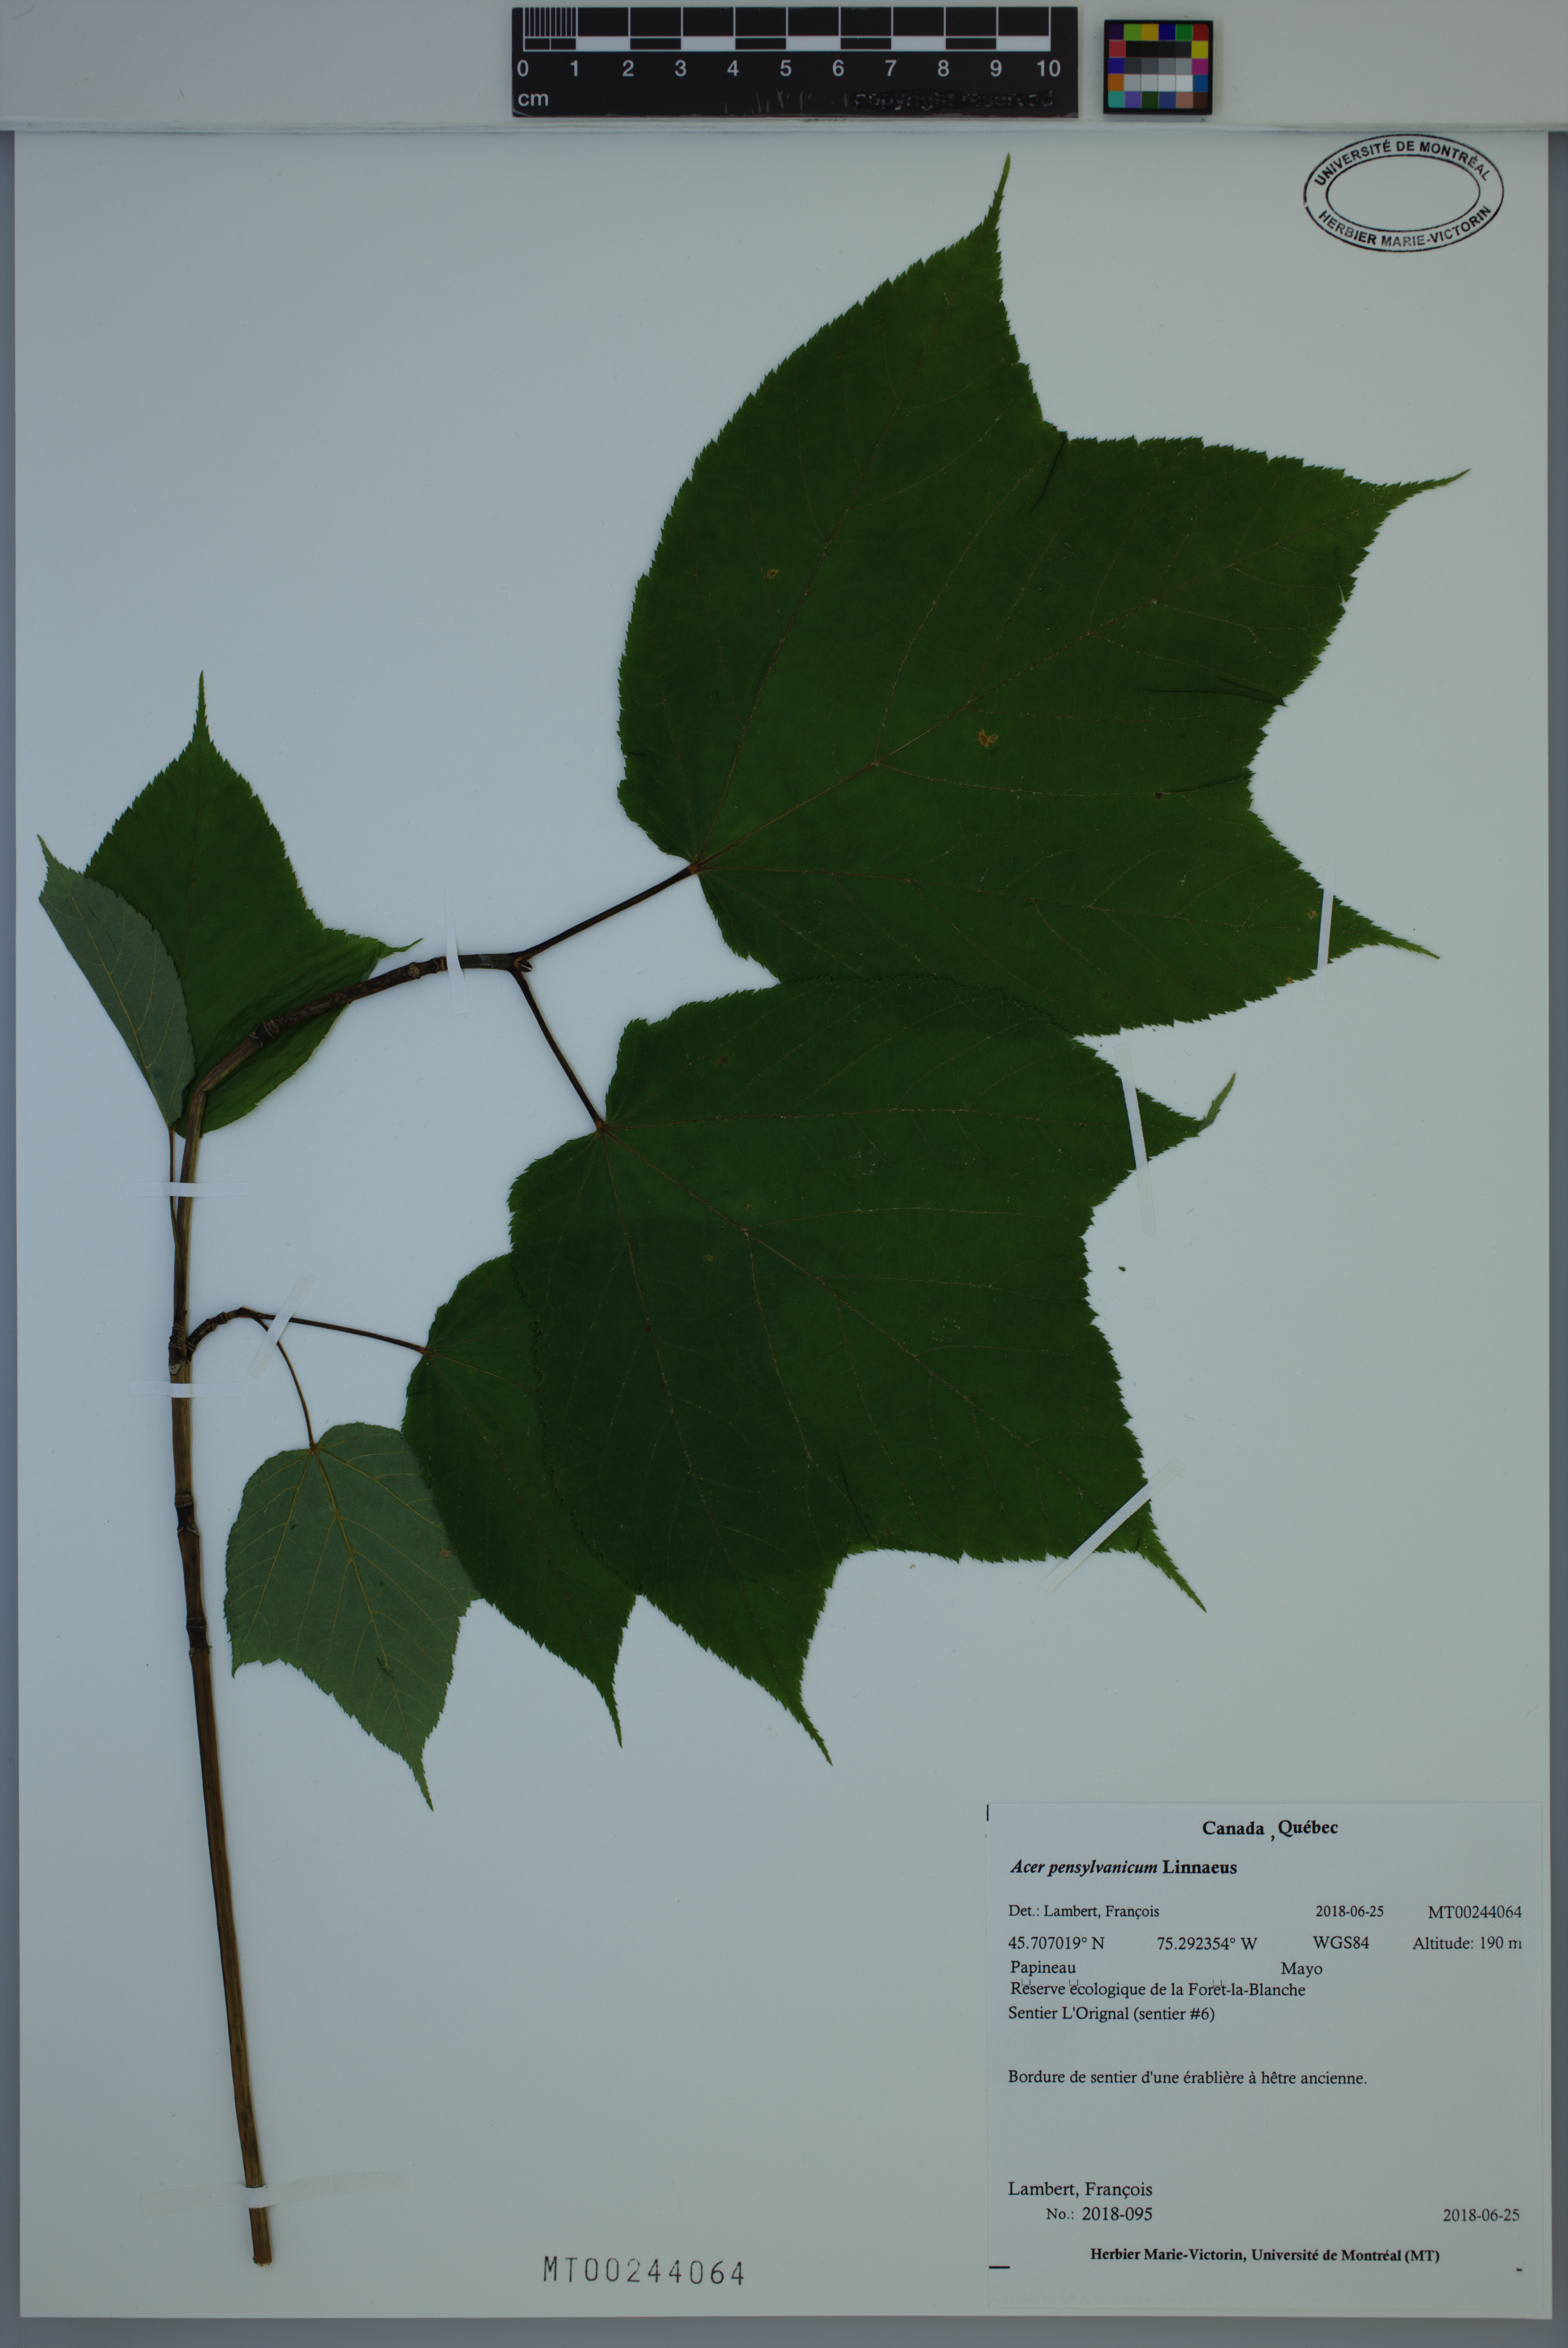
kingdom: Plantae
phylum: Tracheophyta
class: Magnoliopsida
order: Sapindales
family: Sapindaceae
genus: Acer
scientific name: Acer pensylvanicum
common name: Moosewood
